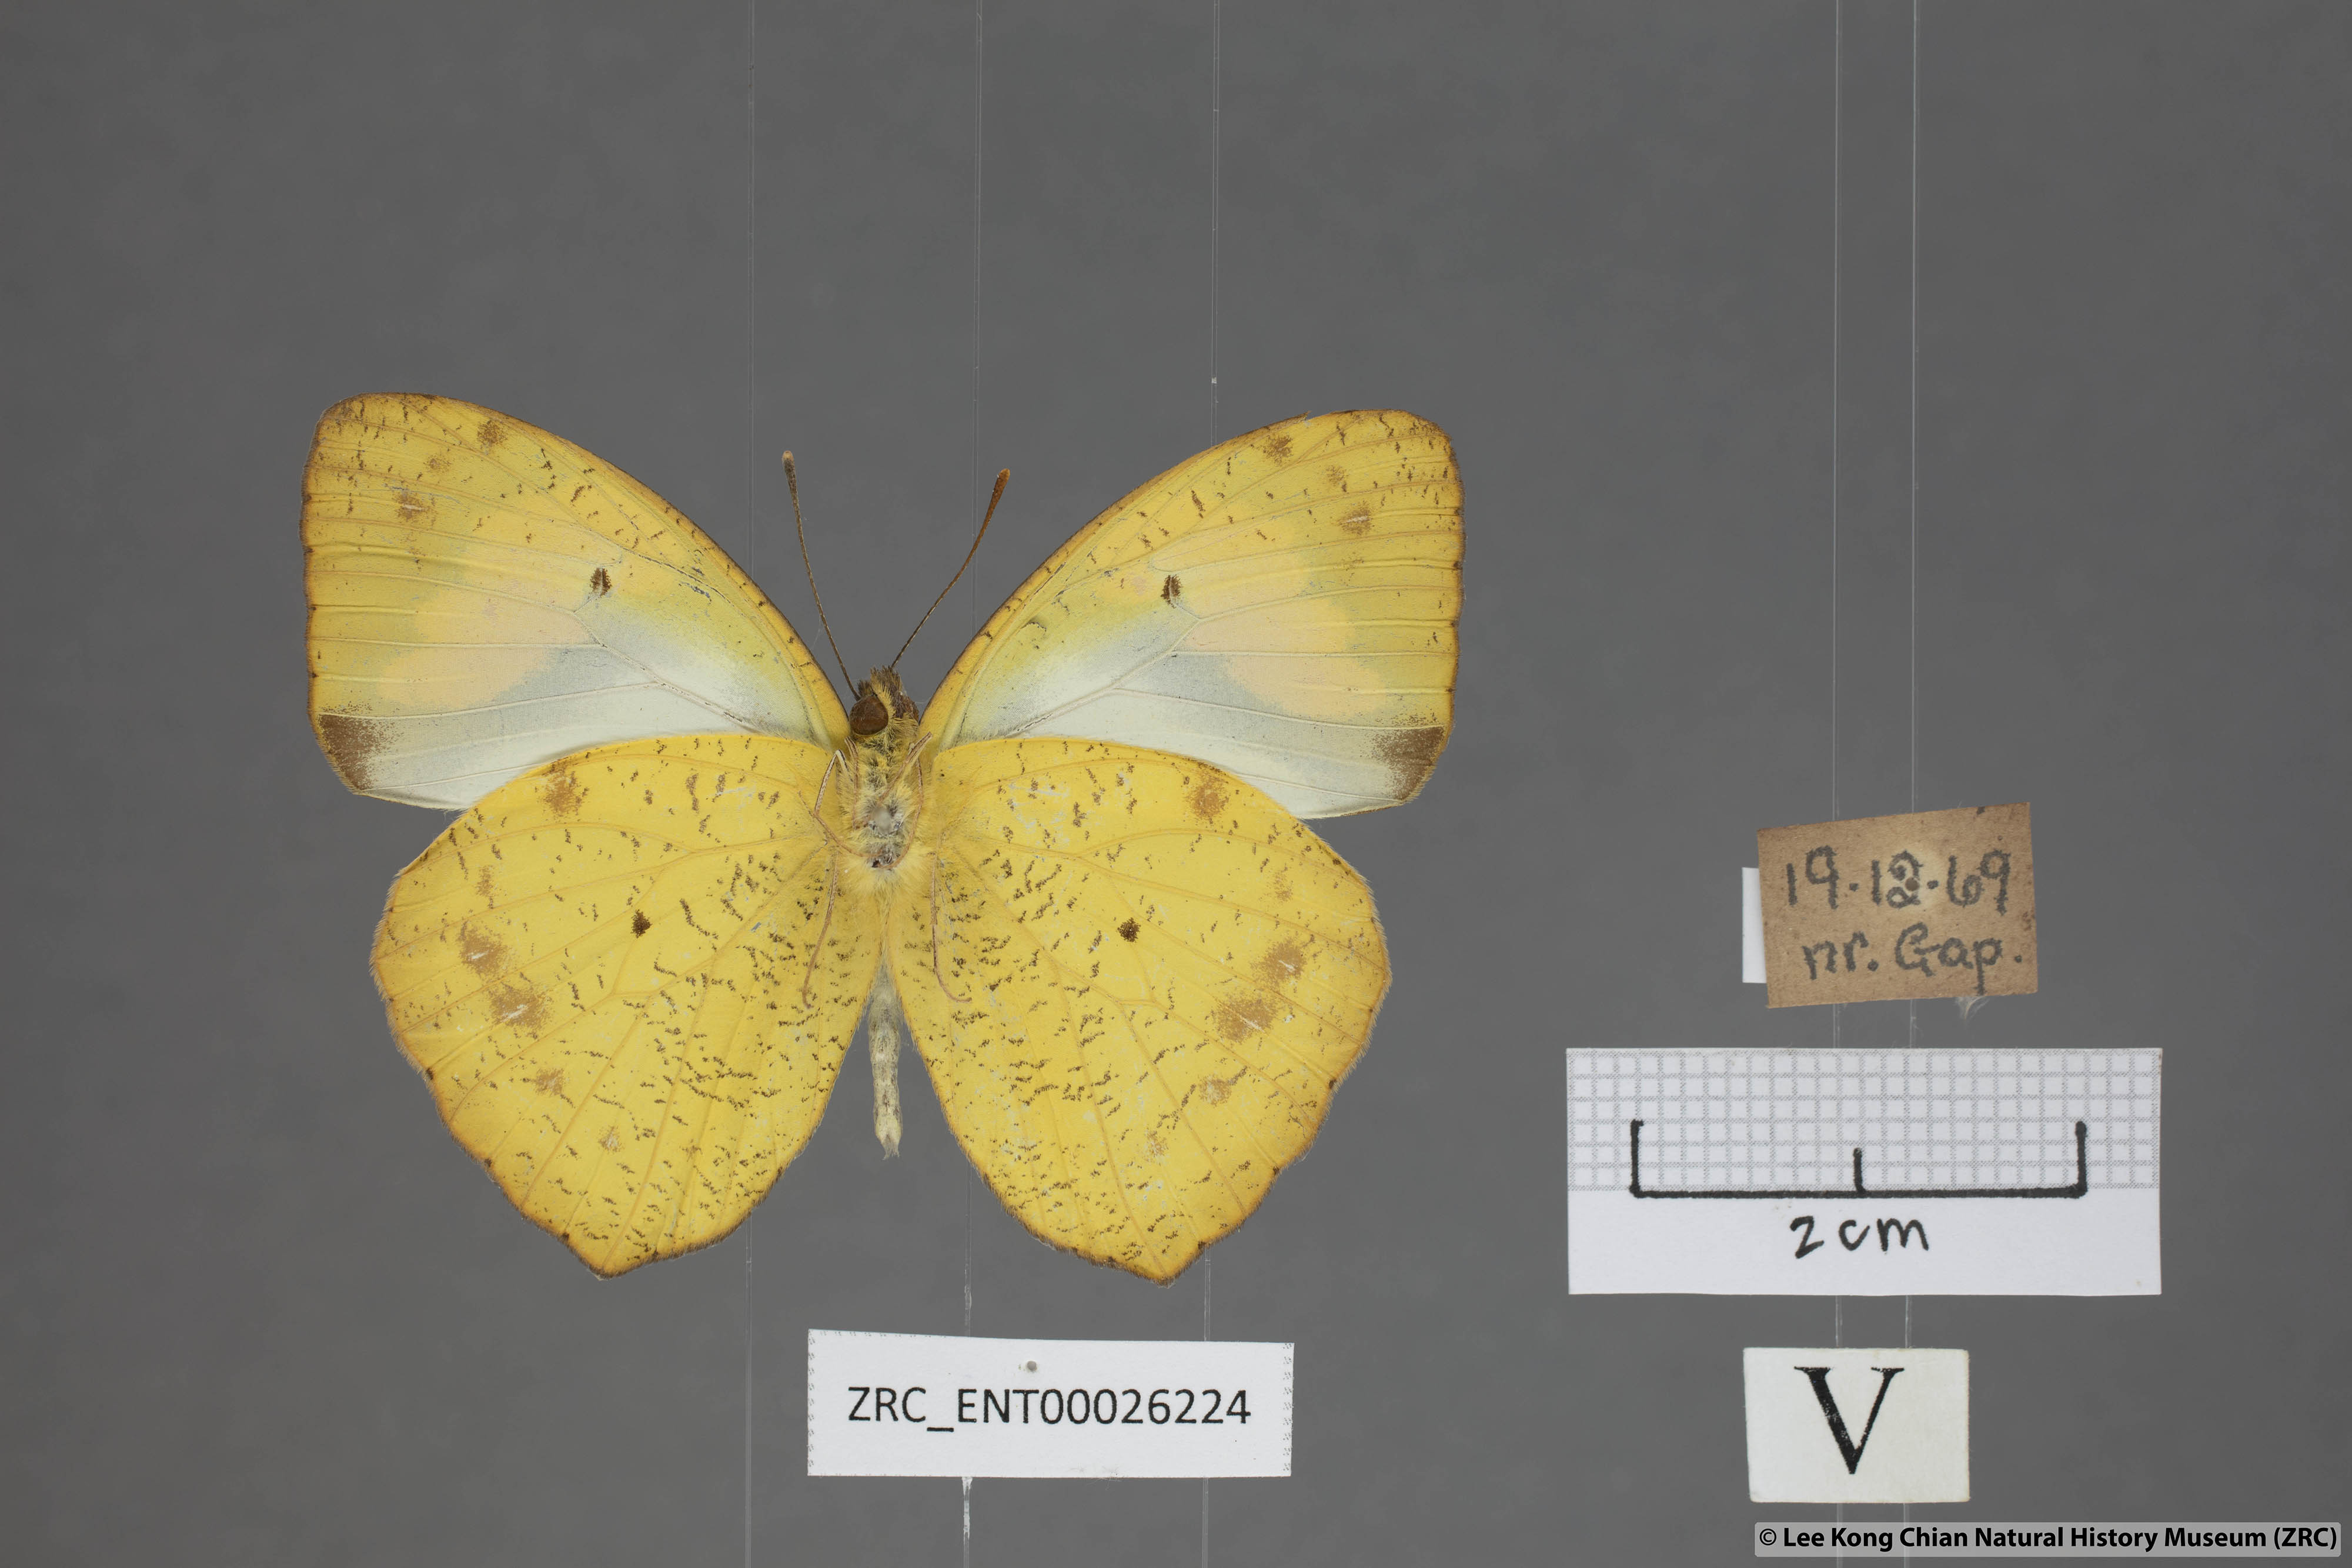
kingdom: Animalia
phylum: Arthropoda
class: Insecta
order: Lepidoptera
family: Pieridae
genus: Ixias
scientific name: Ixias pyrene
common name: Yellow orange tip
